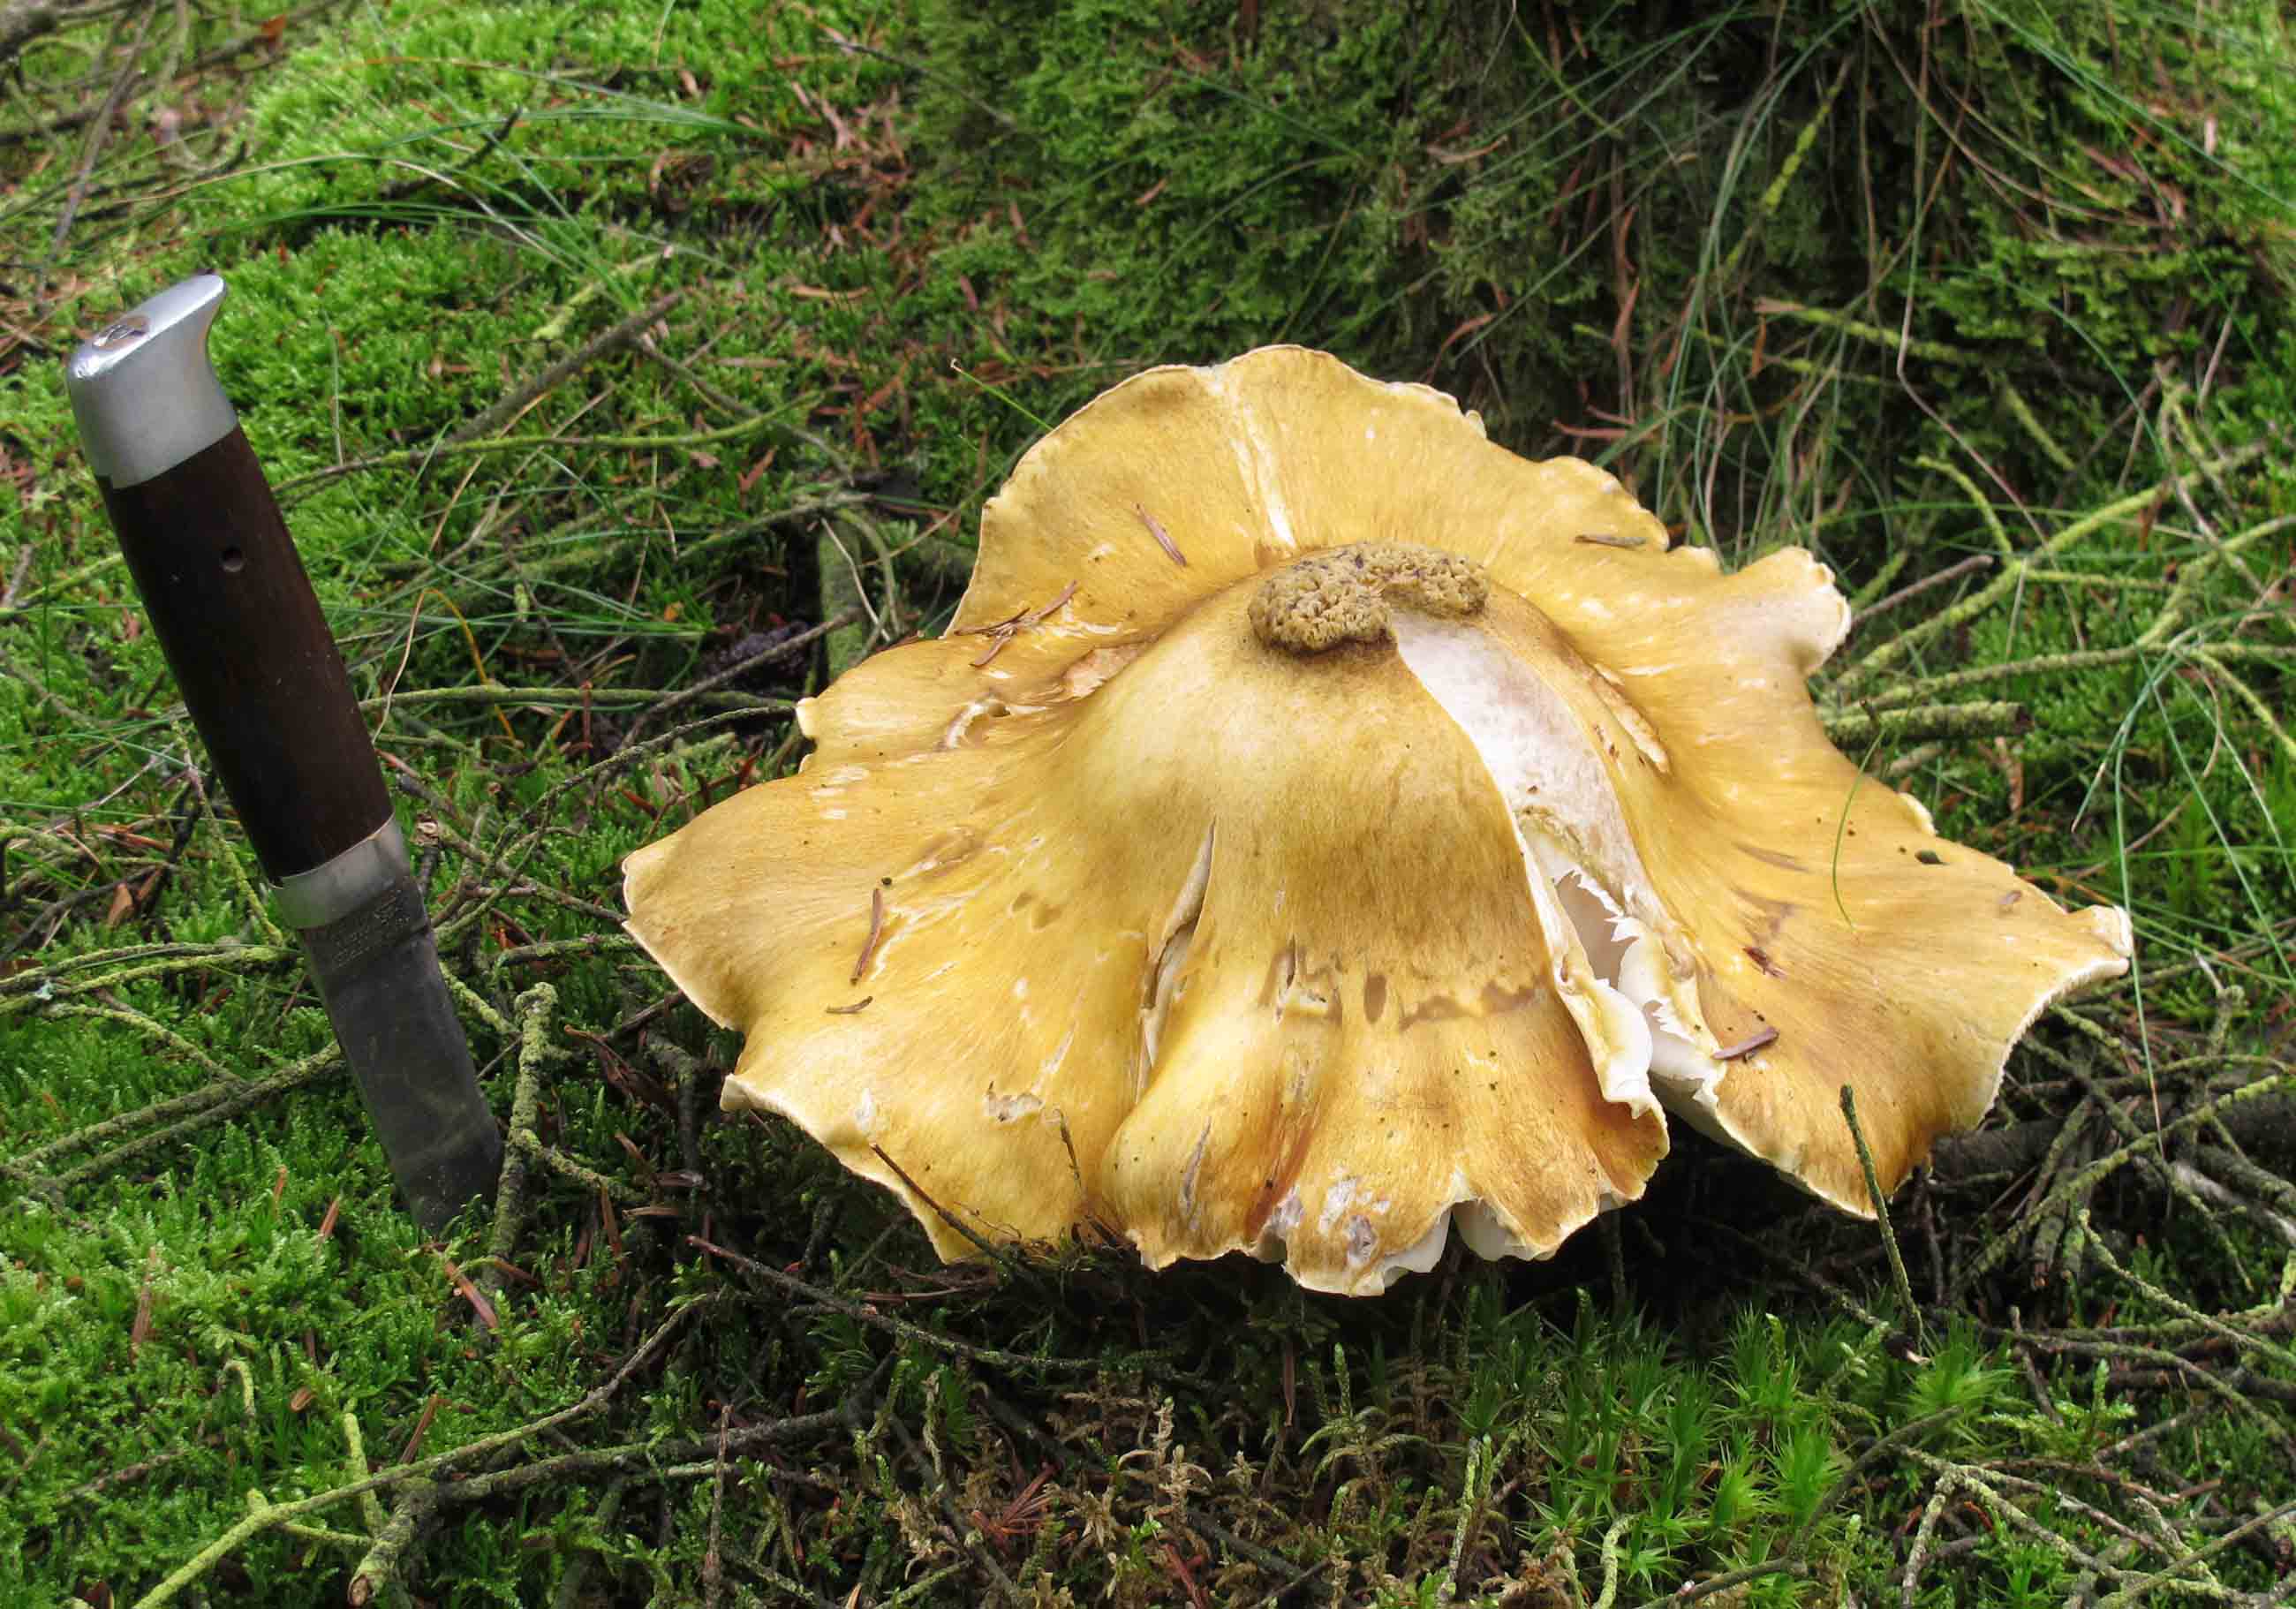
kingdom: Fungi
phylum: Basidiomycota
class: Agaricomycetes
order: Agaricales
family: Tricholomataceae
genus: Tricholoma
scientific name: Tricholoma arvernense
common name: kantet ridderhat
